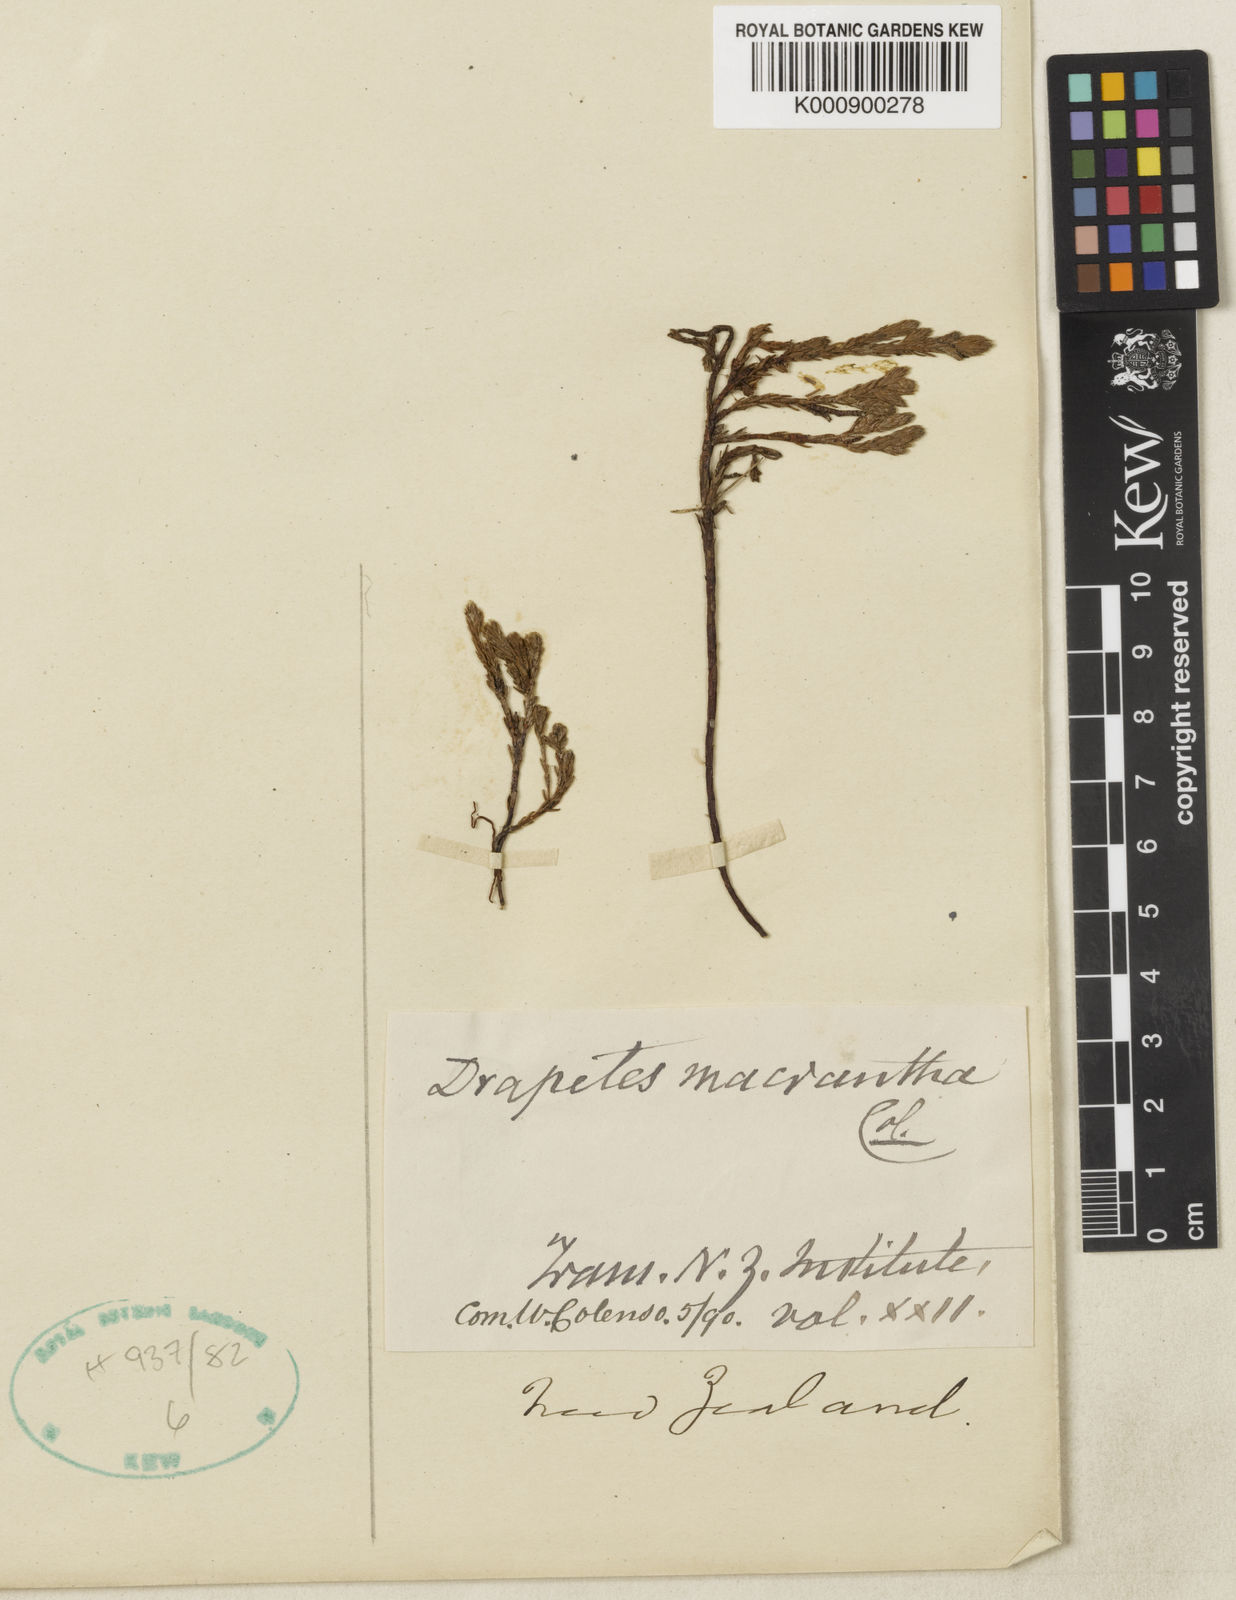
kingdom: Plantae
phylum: Tracheophyta
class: Magnoliopsida
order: Malvales
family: Thymelaeaceae
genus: Kelleria
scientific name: Kelleria dieffenbachii
